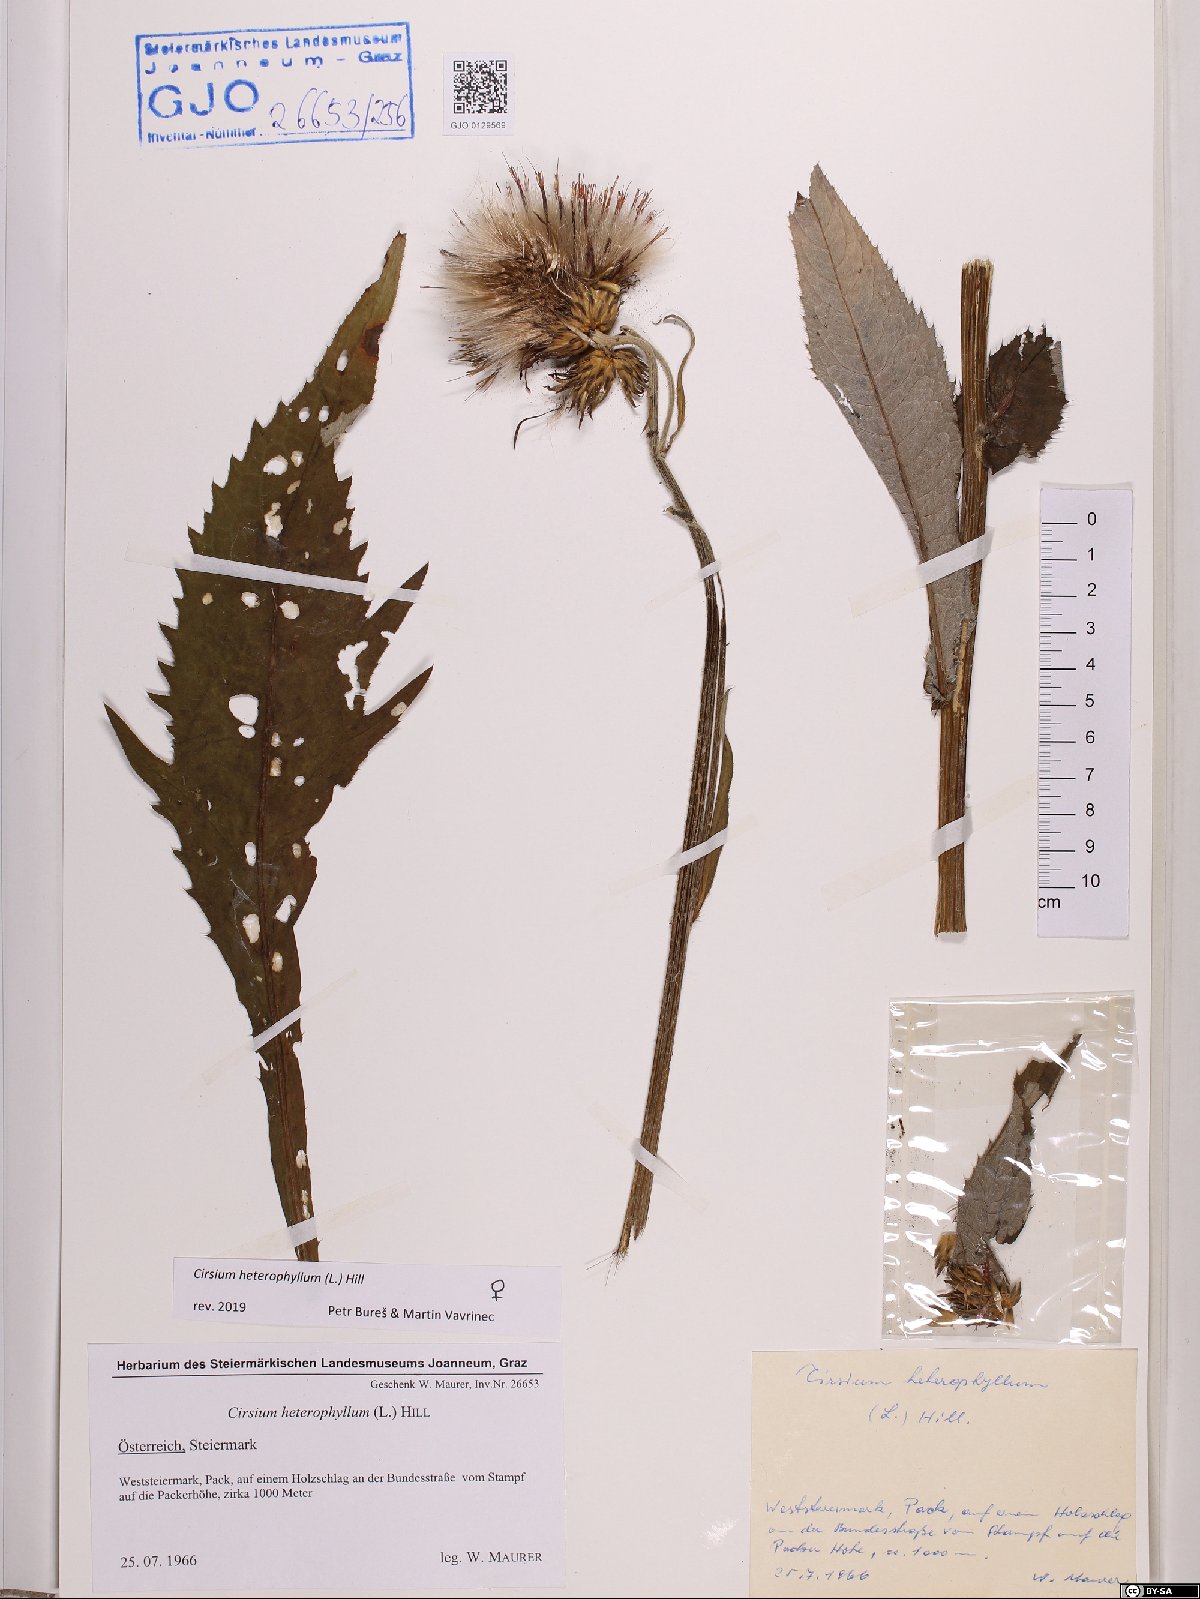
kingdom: Plantae
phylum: Tracheophyta
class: Magnoliopsida
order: Asterales
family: Asteraceae
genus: Cirsium
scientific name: Cirsium heterophyllum
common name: Melancholy thistle
